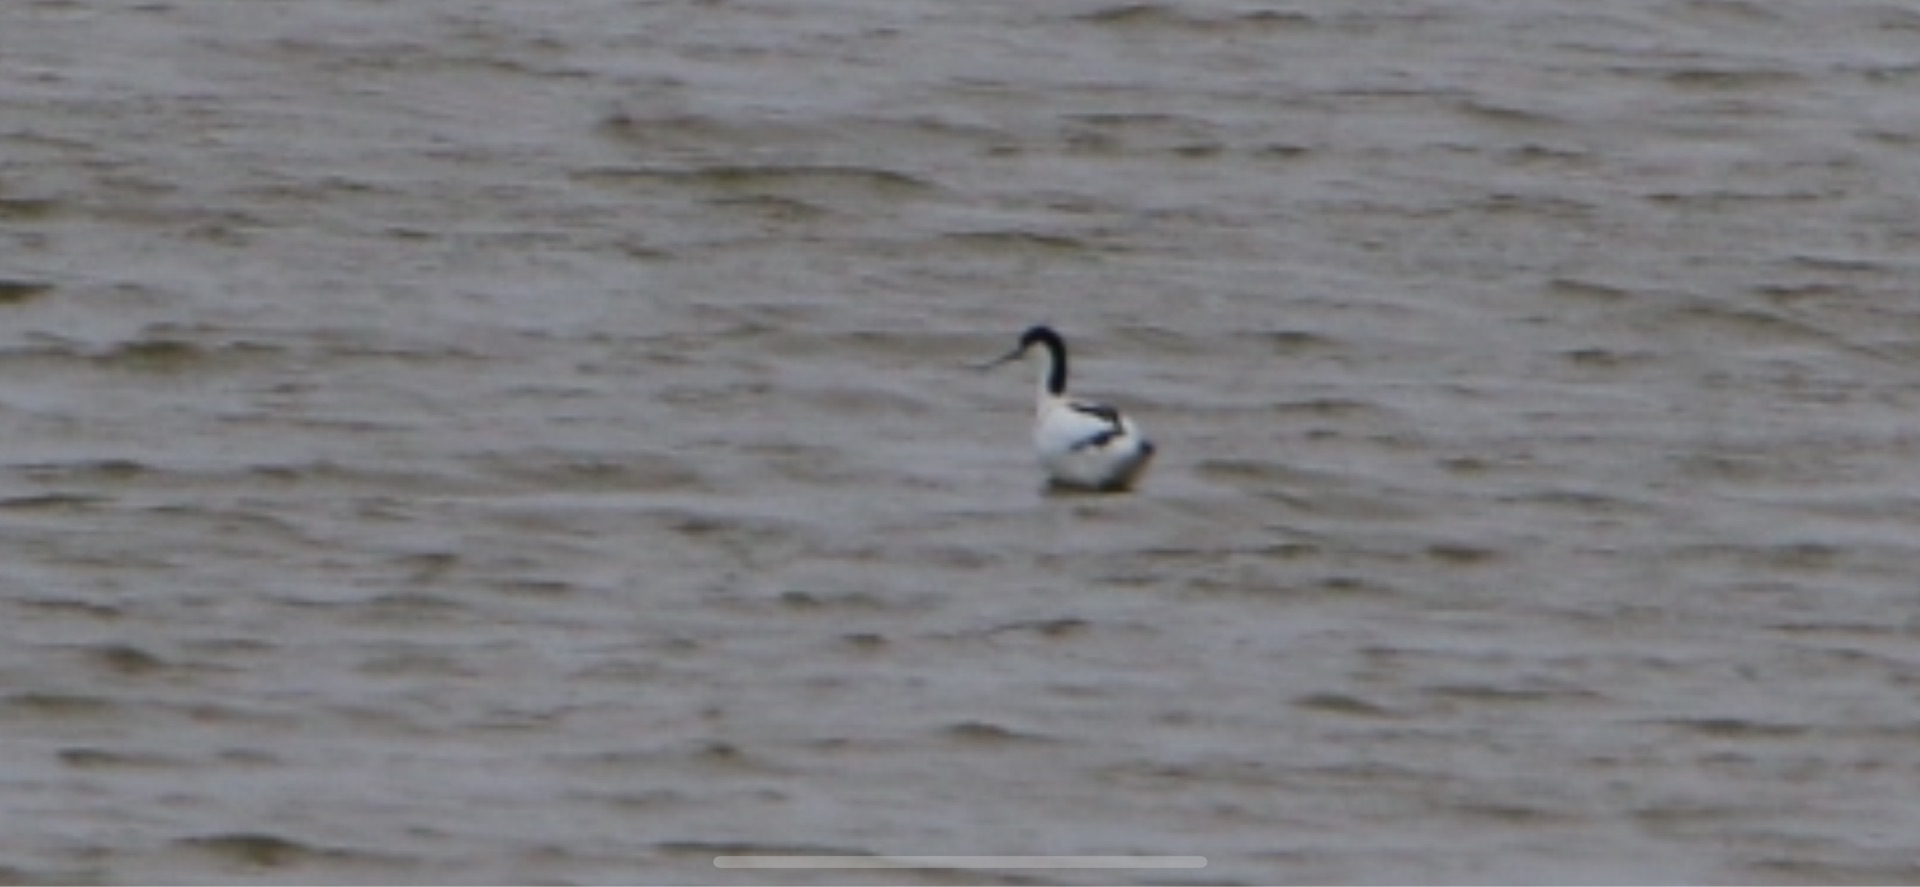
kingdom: Animalia
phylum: Chordata
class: Aves
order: Charadriiformes
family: Recurvirostridae
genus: Recurvirostra
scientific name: Recurvirostra avosetta
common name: Klyde
